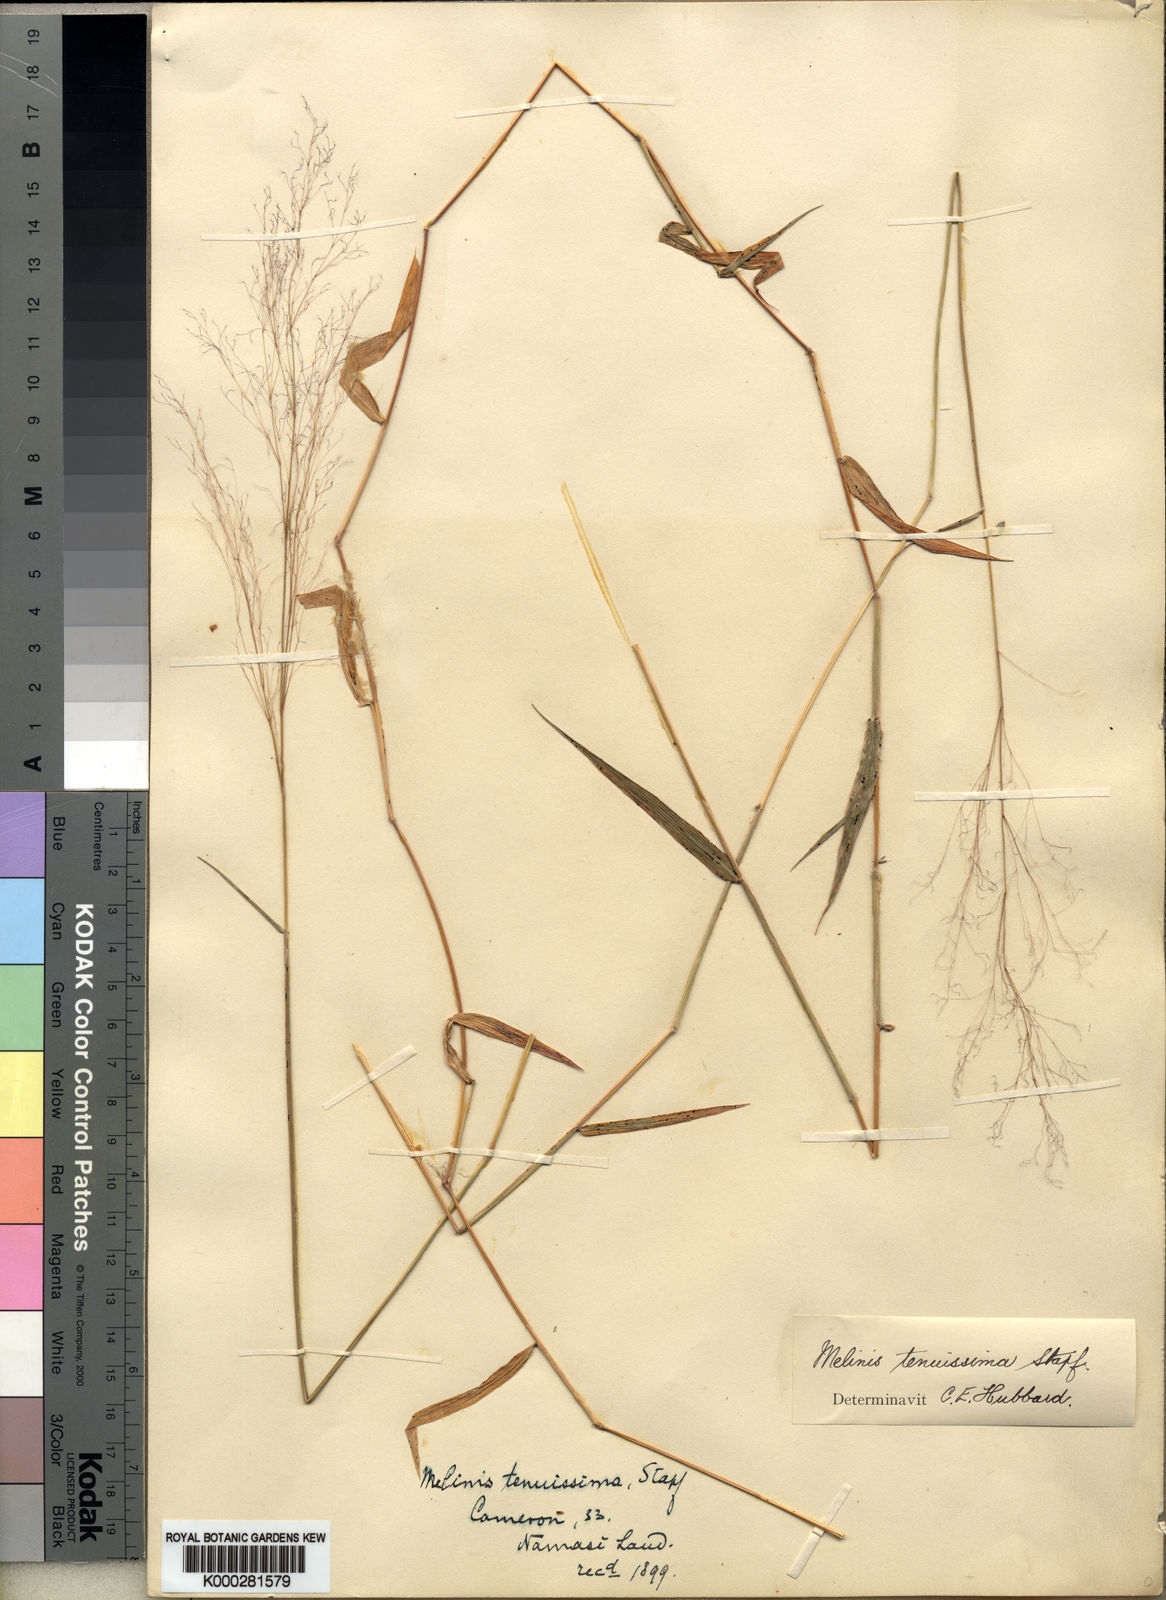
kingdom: Plantae
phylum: Tracheophyta
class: Liliopsida
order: Poales
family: Poaceae
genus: Melinis
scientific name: Melinis tenuissima
